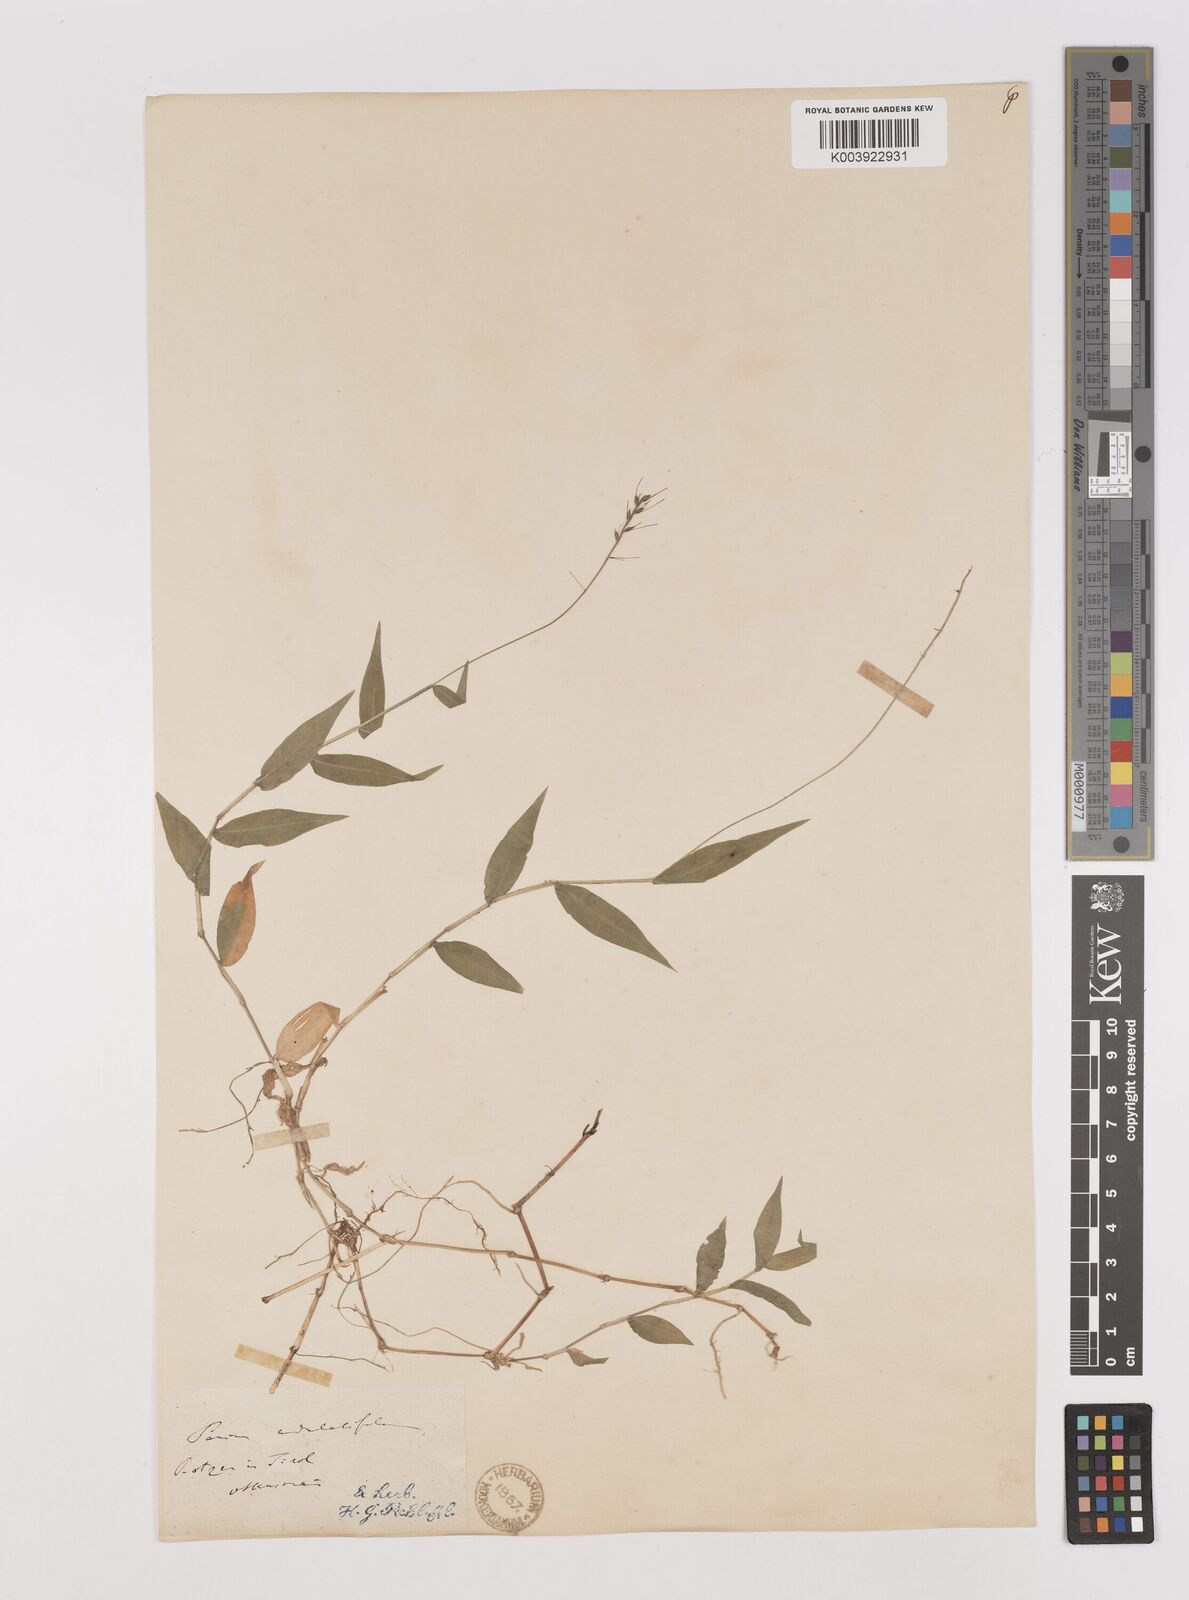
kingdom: Plantae
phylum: Tracheophyta
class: Liliopsida
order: Poales
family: Poaceae
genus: Oplismenus
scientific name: Oplismenus undulatifolius
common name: Wavyleaf basketgrass
